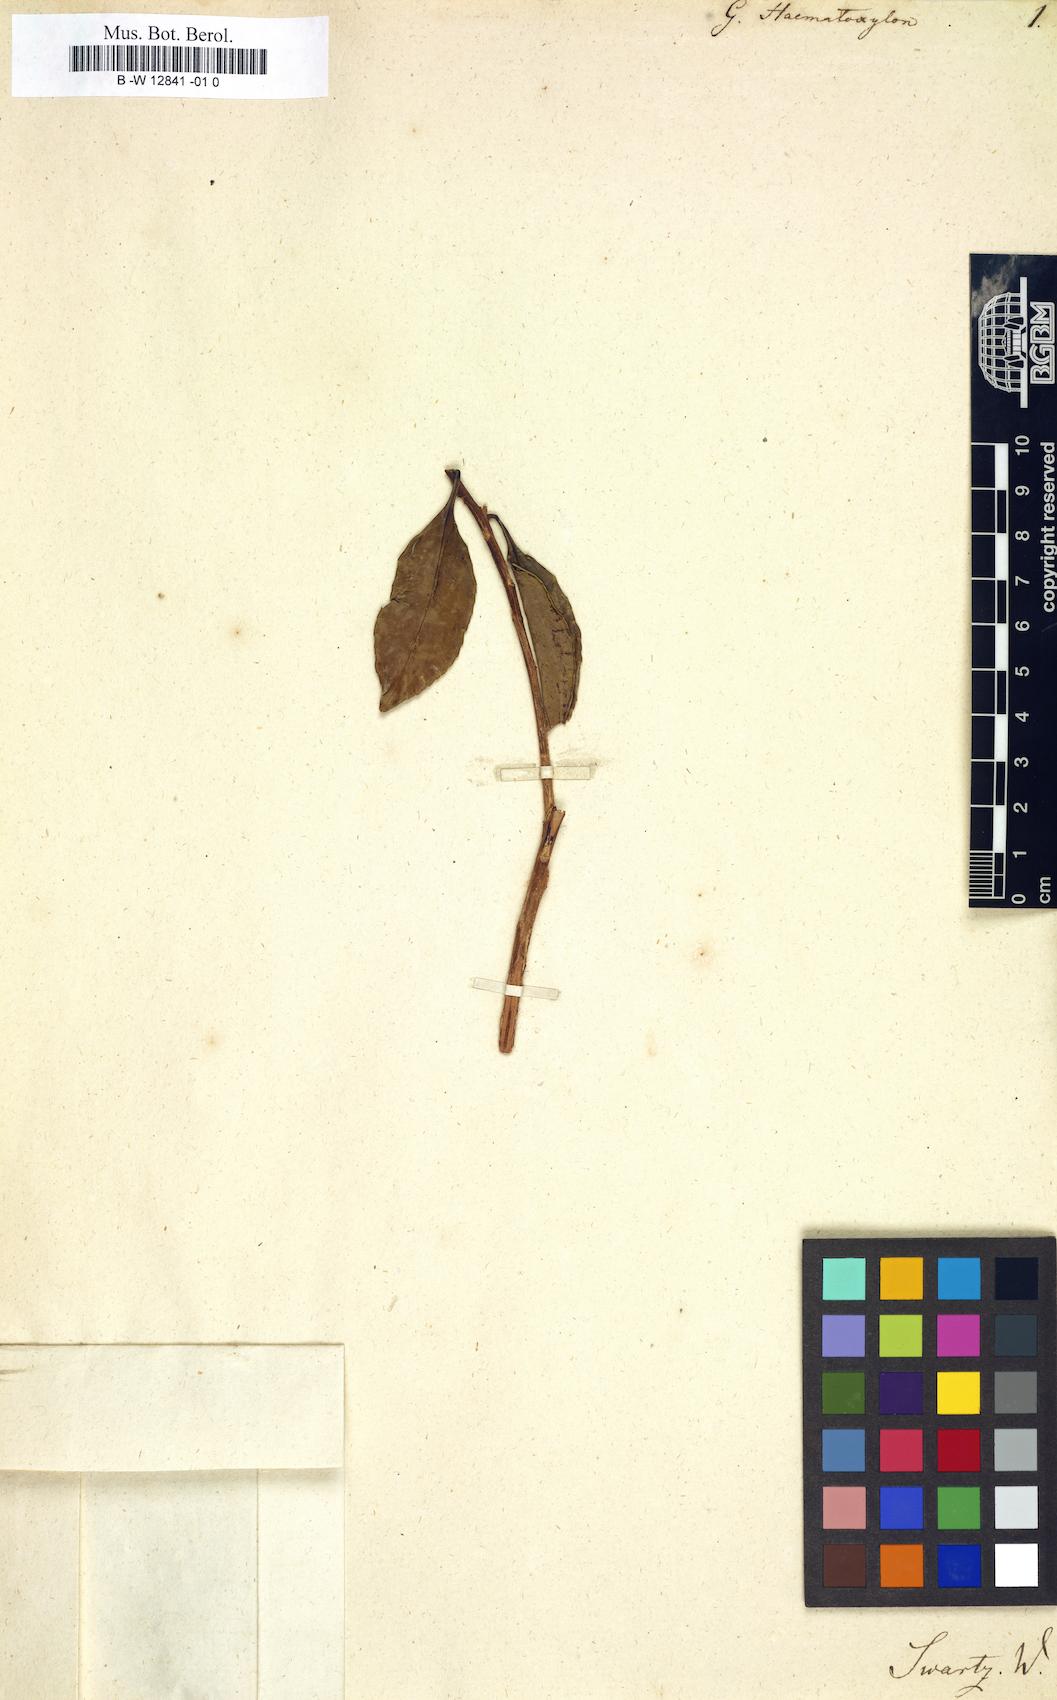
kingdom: Plantae
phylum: Tracheophyta
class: Magnoliopsida
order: Ericales
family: Theaceae
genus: Gordonia
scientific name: Gordonia haematoxylon
